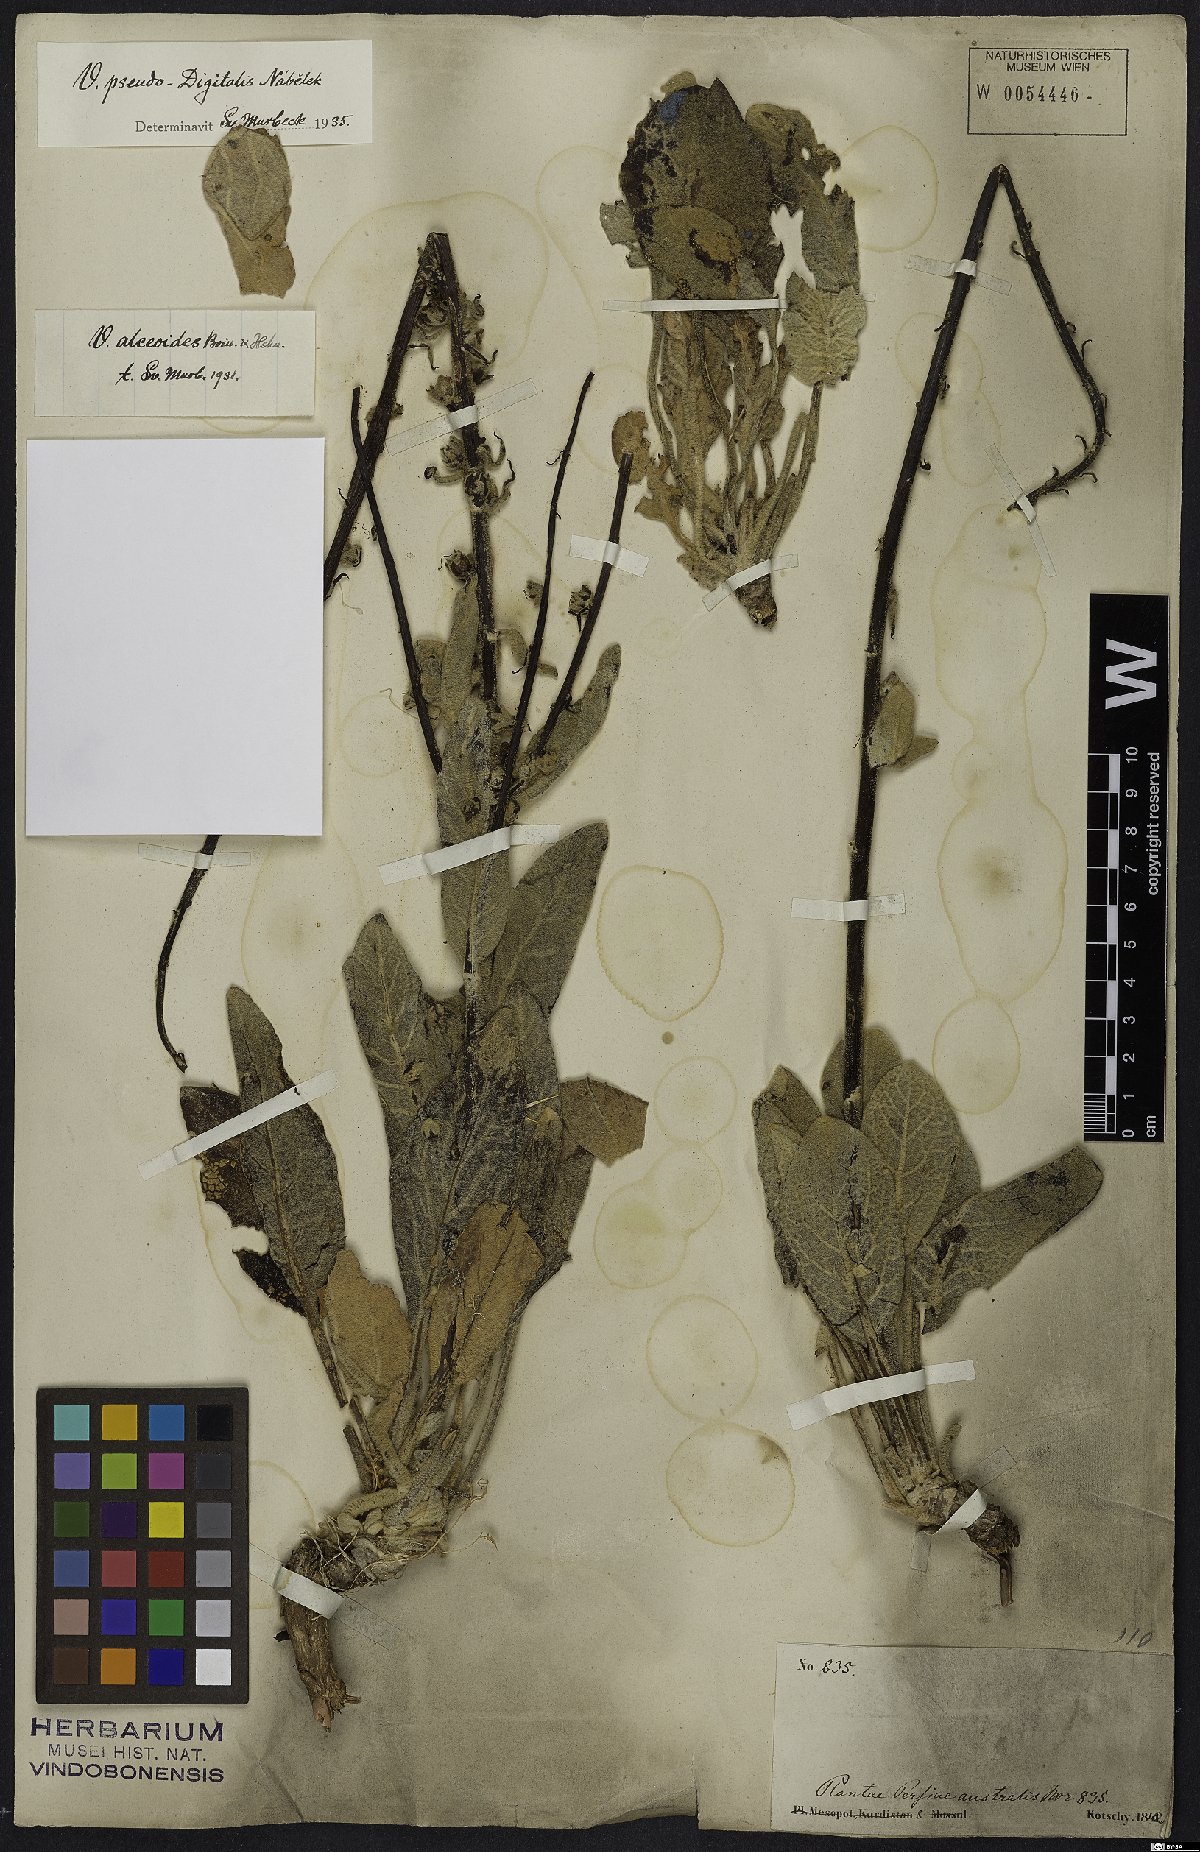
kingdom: Plantae
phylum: Tracheophyta
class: Magnoliopsida
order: Lamiales
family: Scrophulariaceae
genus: Verbascum
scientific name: Verbascum pseudodigitalis
